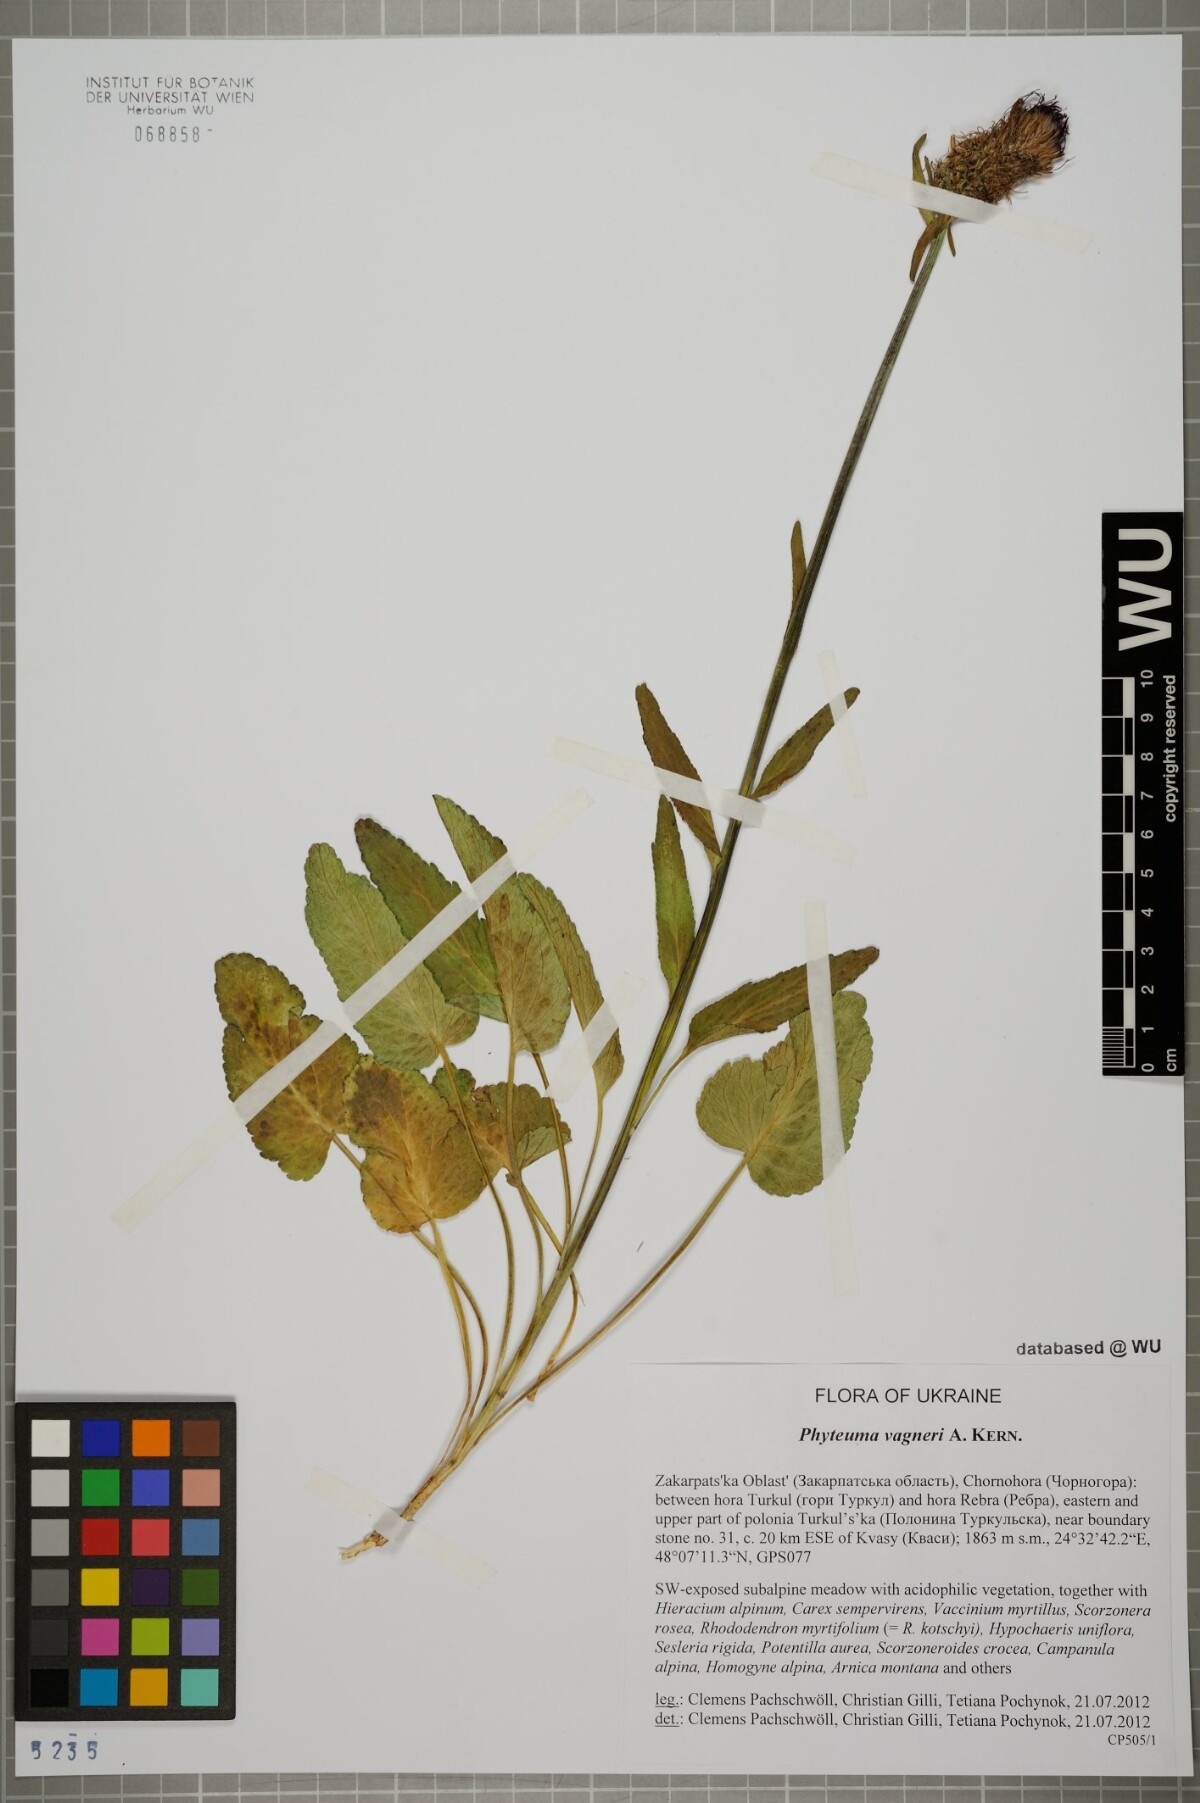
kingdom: Plantae
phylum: Tracheophyta
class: Magnoliopsida
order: Asterales
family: Campanulaceae
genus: Phyteuma
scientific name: Phyteuma vagneri
